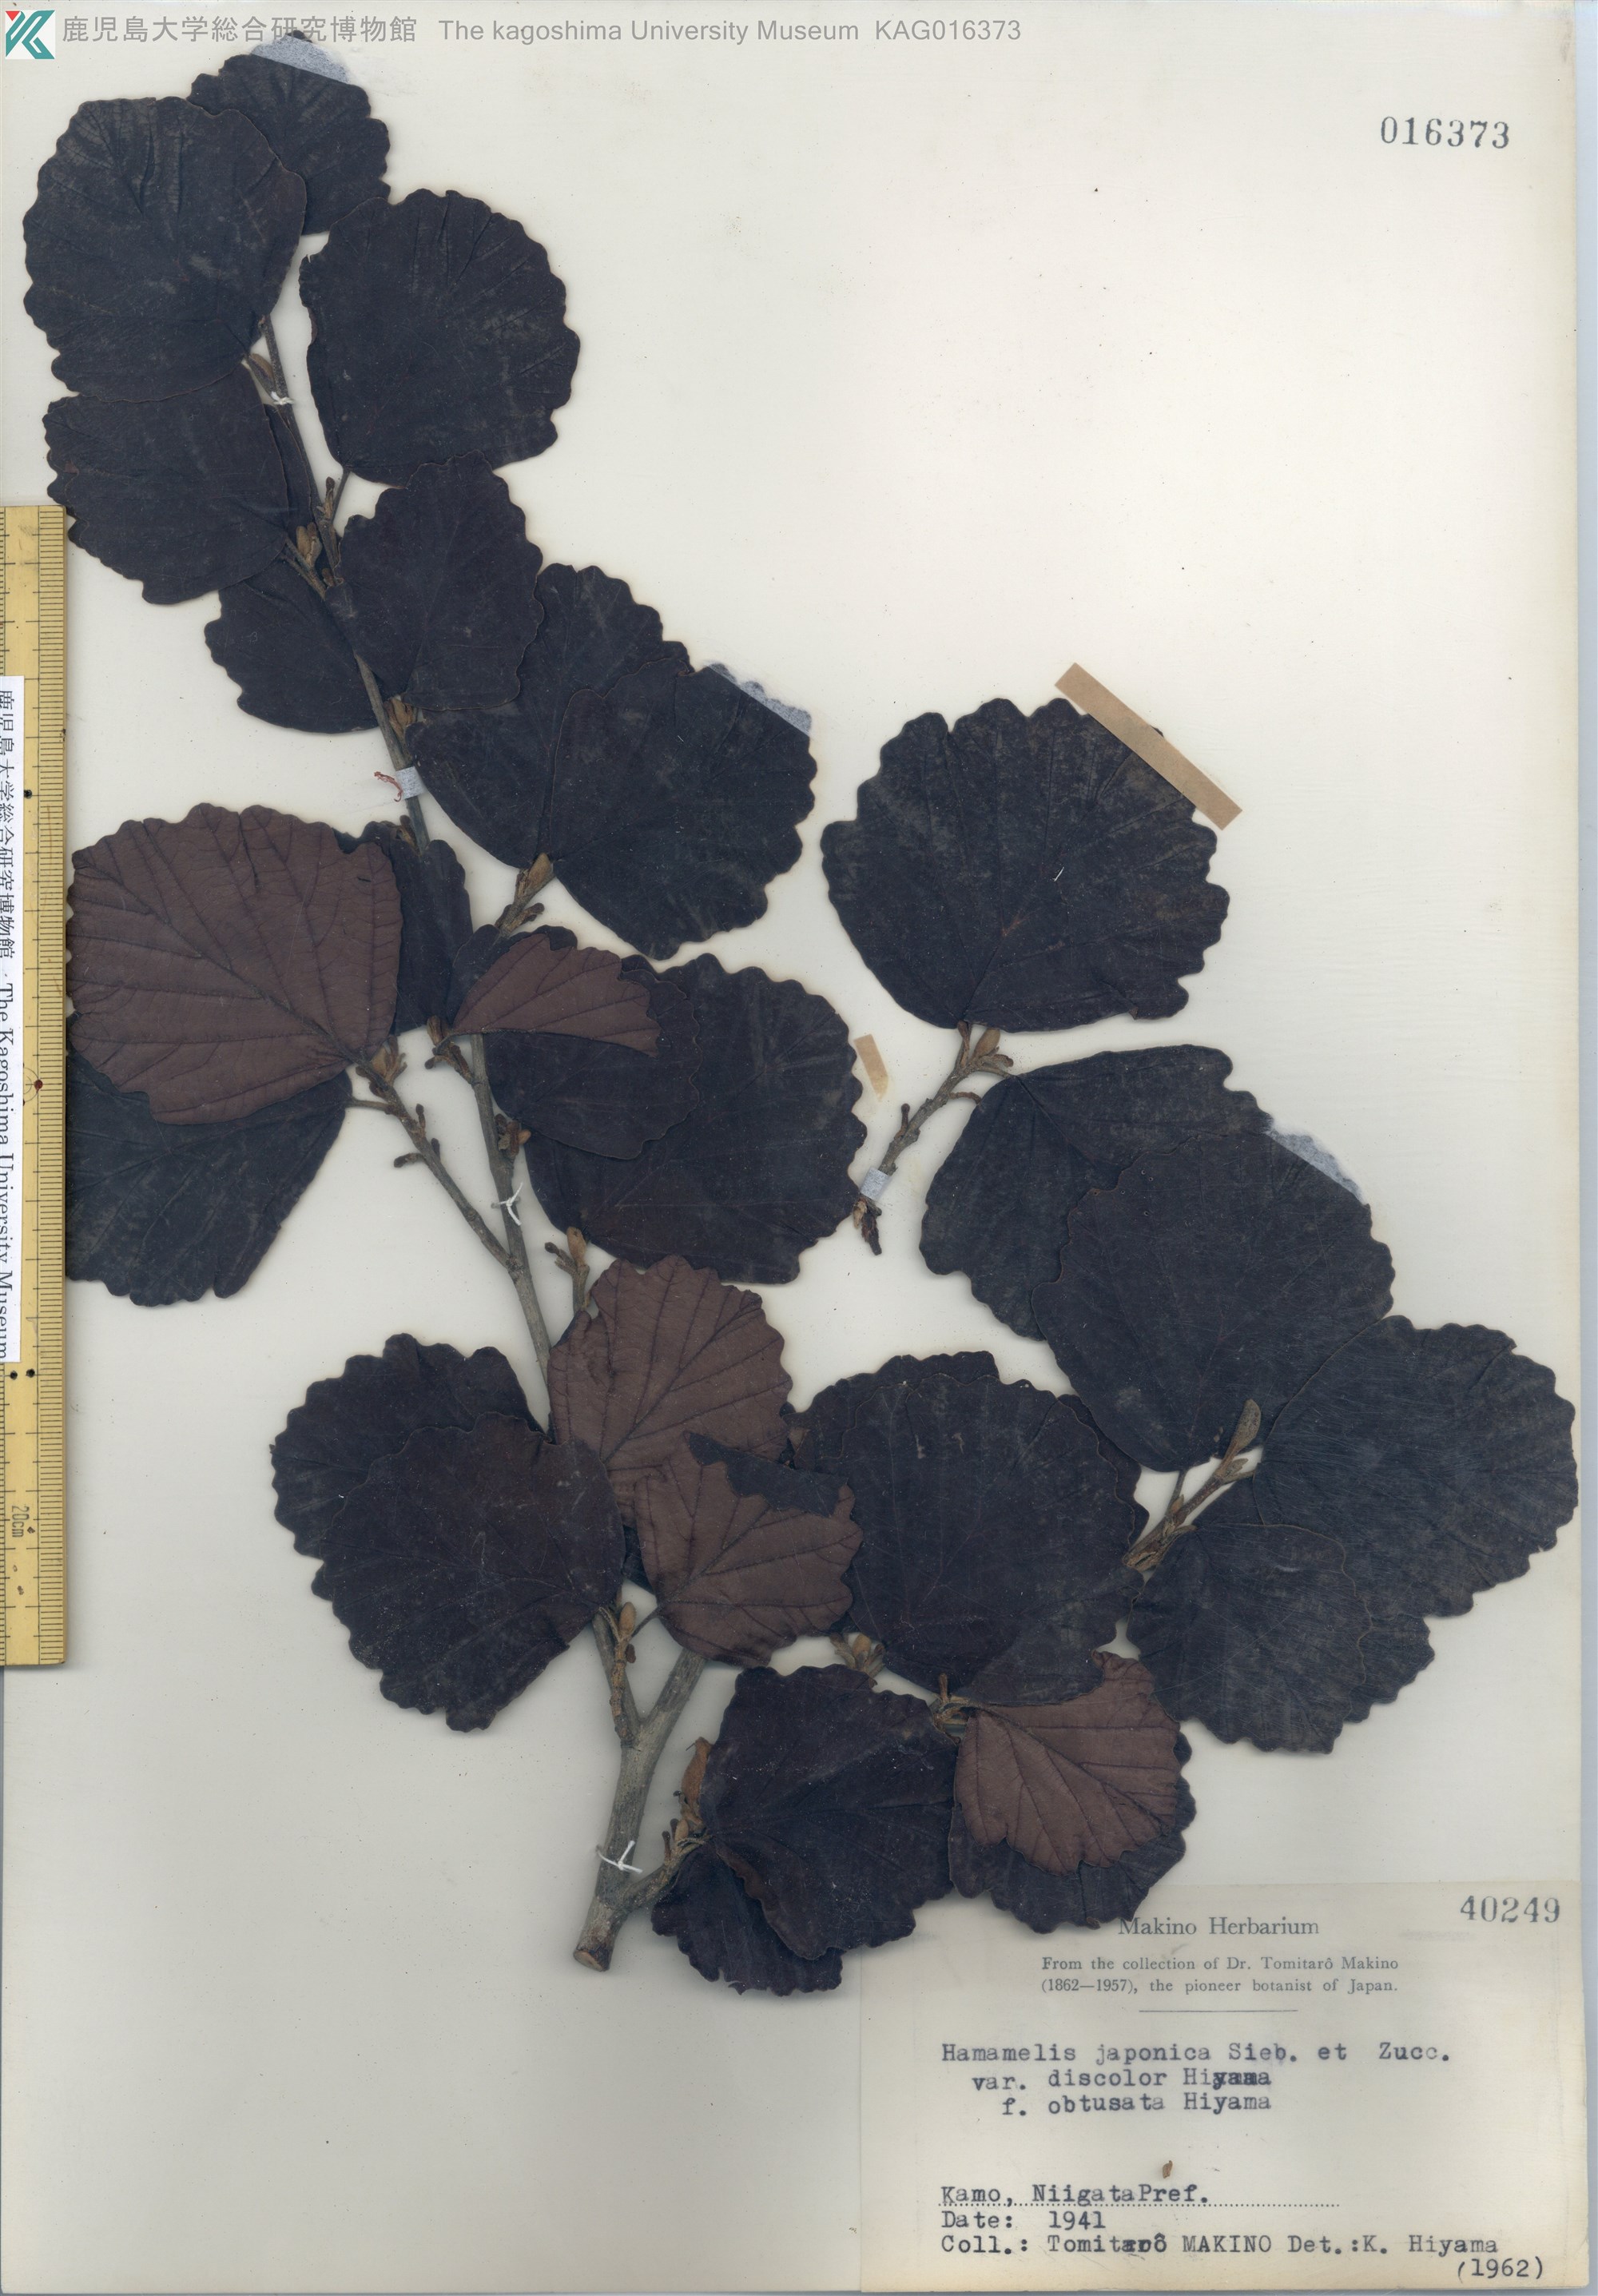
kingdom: Plantae
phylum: Tracheophyta
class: Magnoliopsida
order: Saxifragales
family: Hamamelidaceae
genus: Hamamelis
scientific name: Hamamelis japonica
